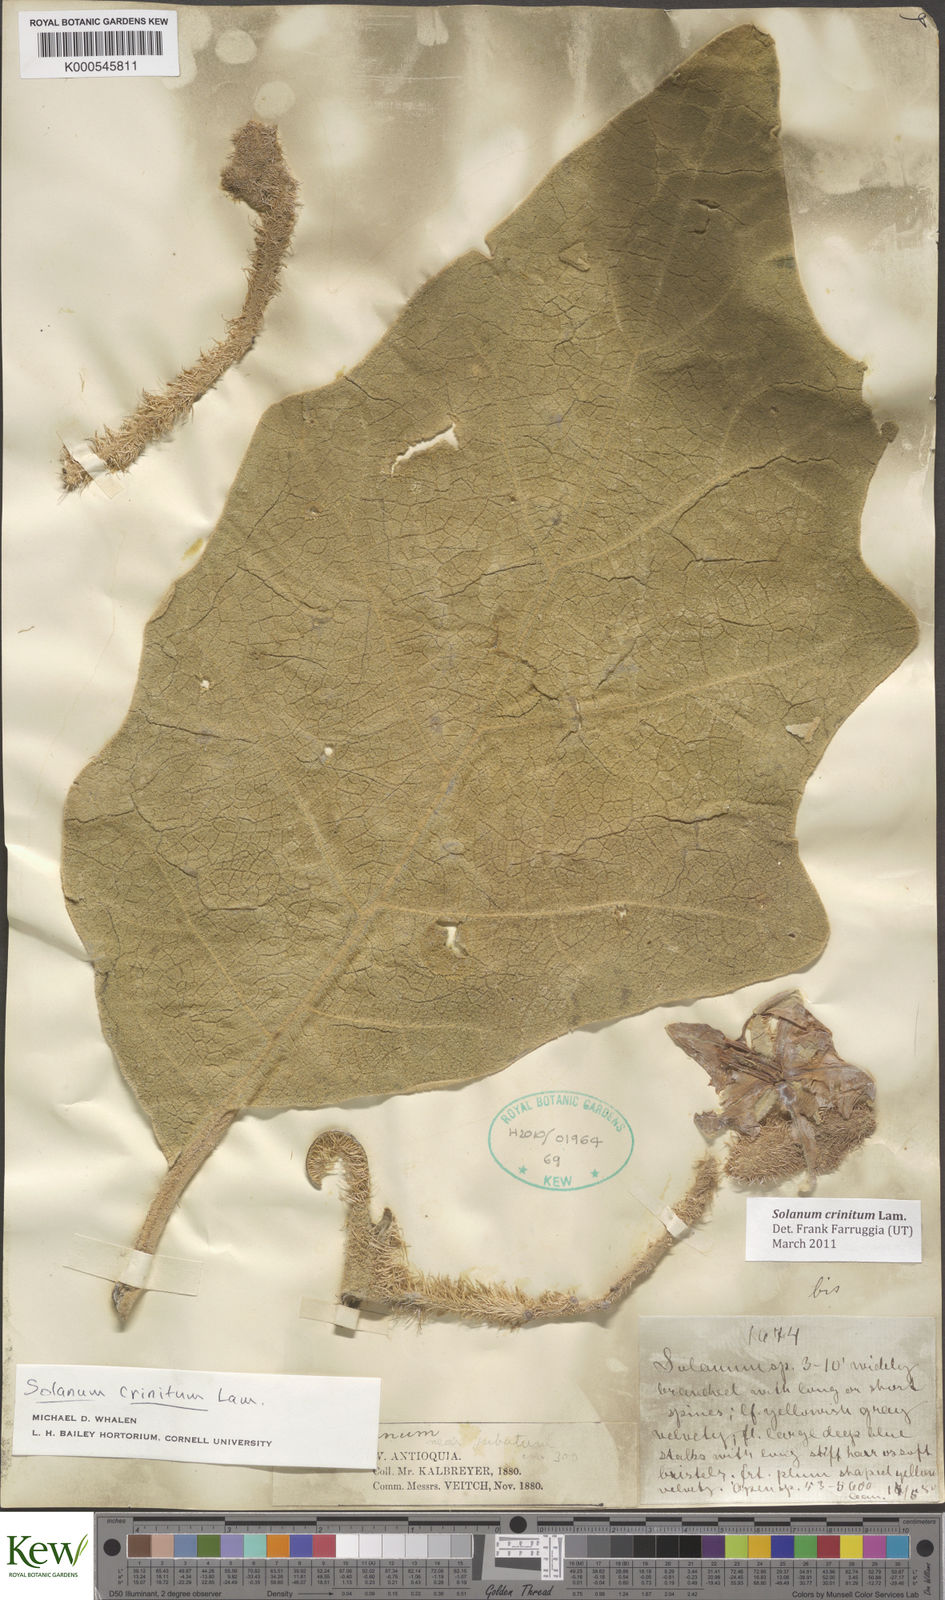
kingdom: Plantae
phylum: Tracheophyta
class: Magnoliopsida
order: Solanales
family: Solanaceae
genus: Solanum
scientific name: Solanum crinitum
